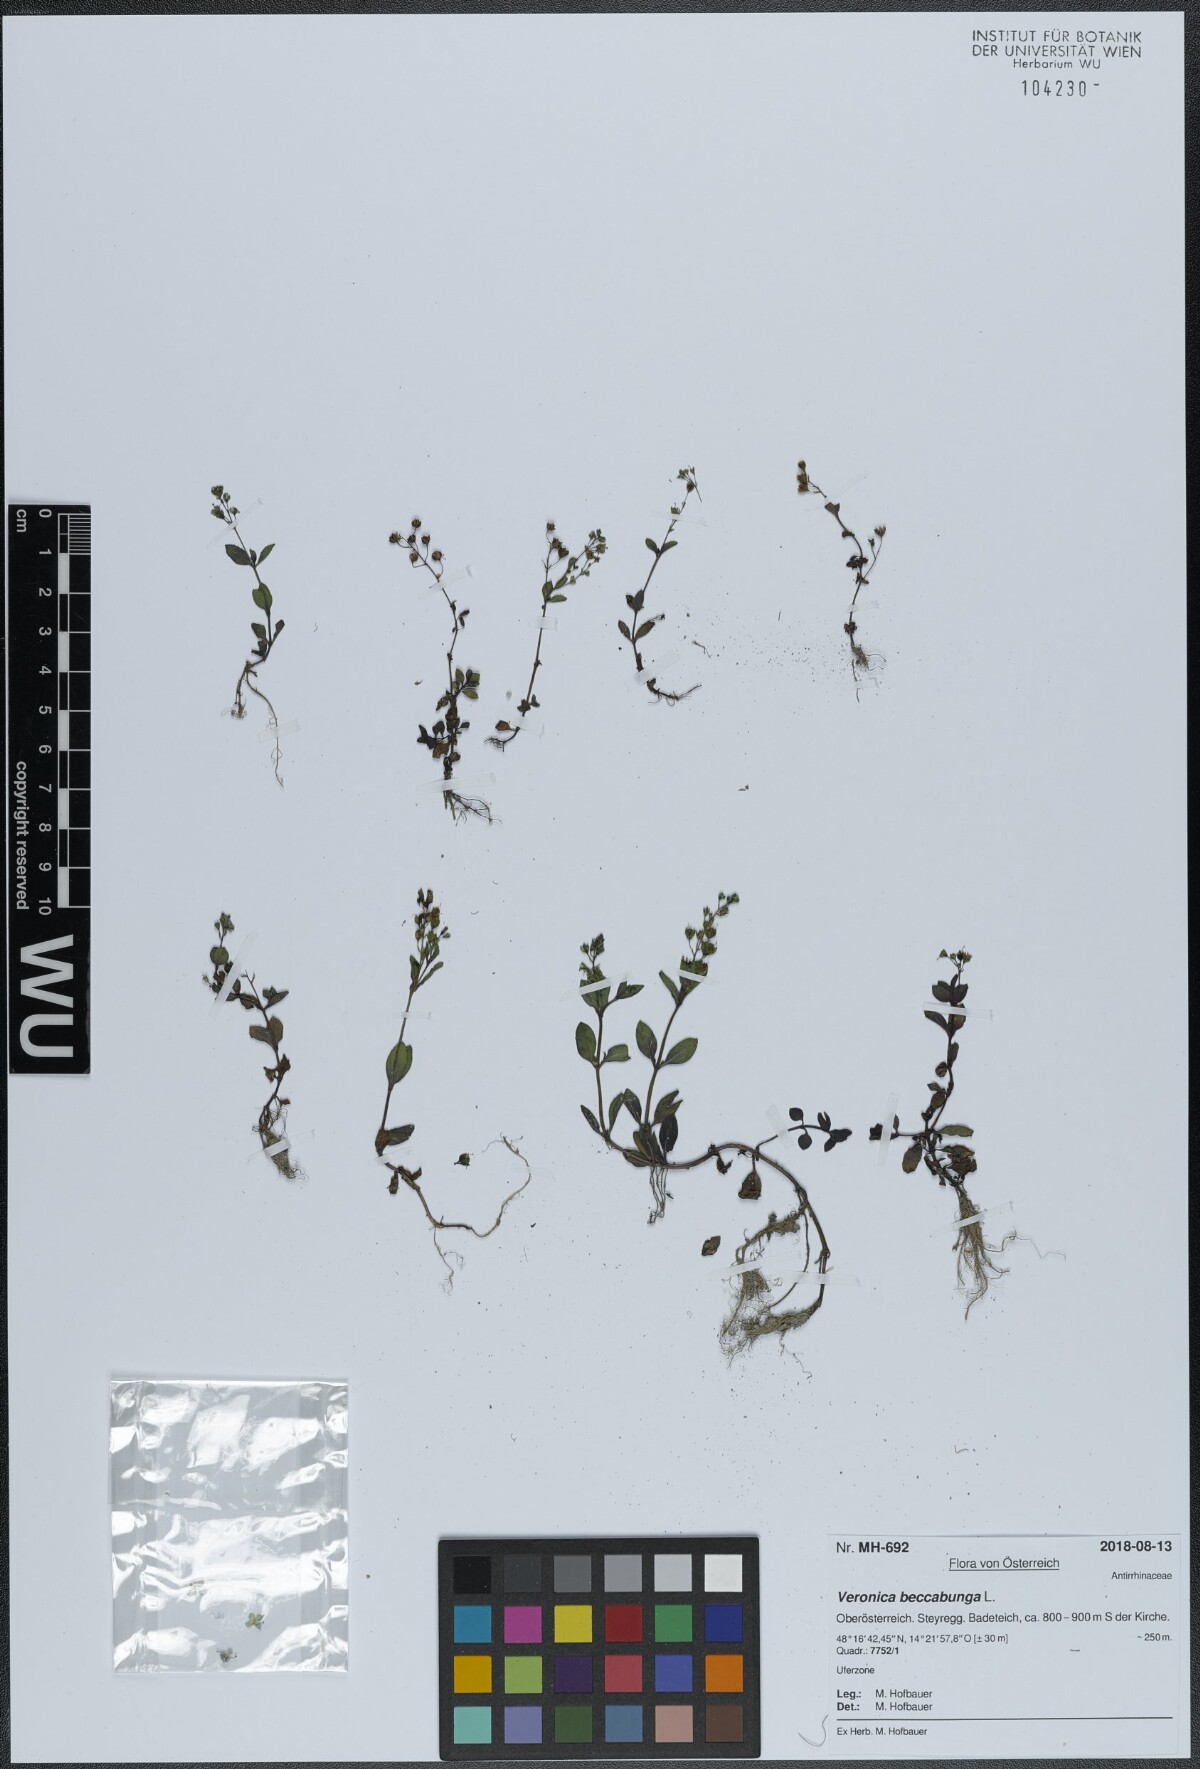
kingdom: Plantae
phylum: Tracheophyta
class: Magnoliopsida
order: Lamiales
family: Plantaginaceae
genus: Veronica
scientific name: Veronica beccabunga
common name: Brooklime
